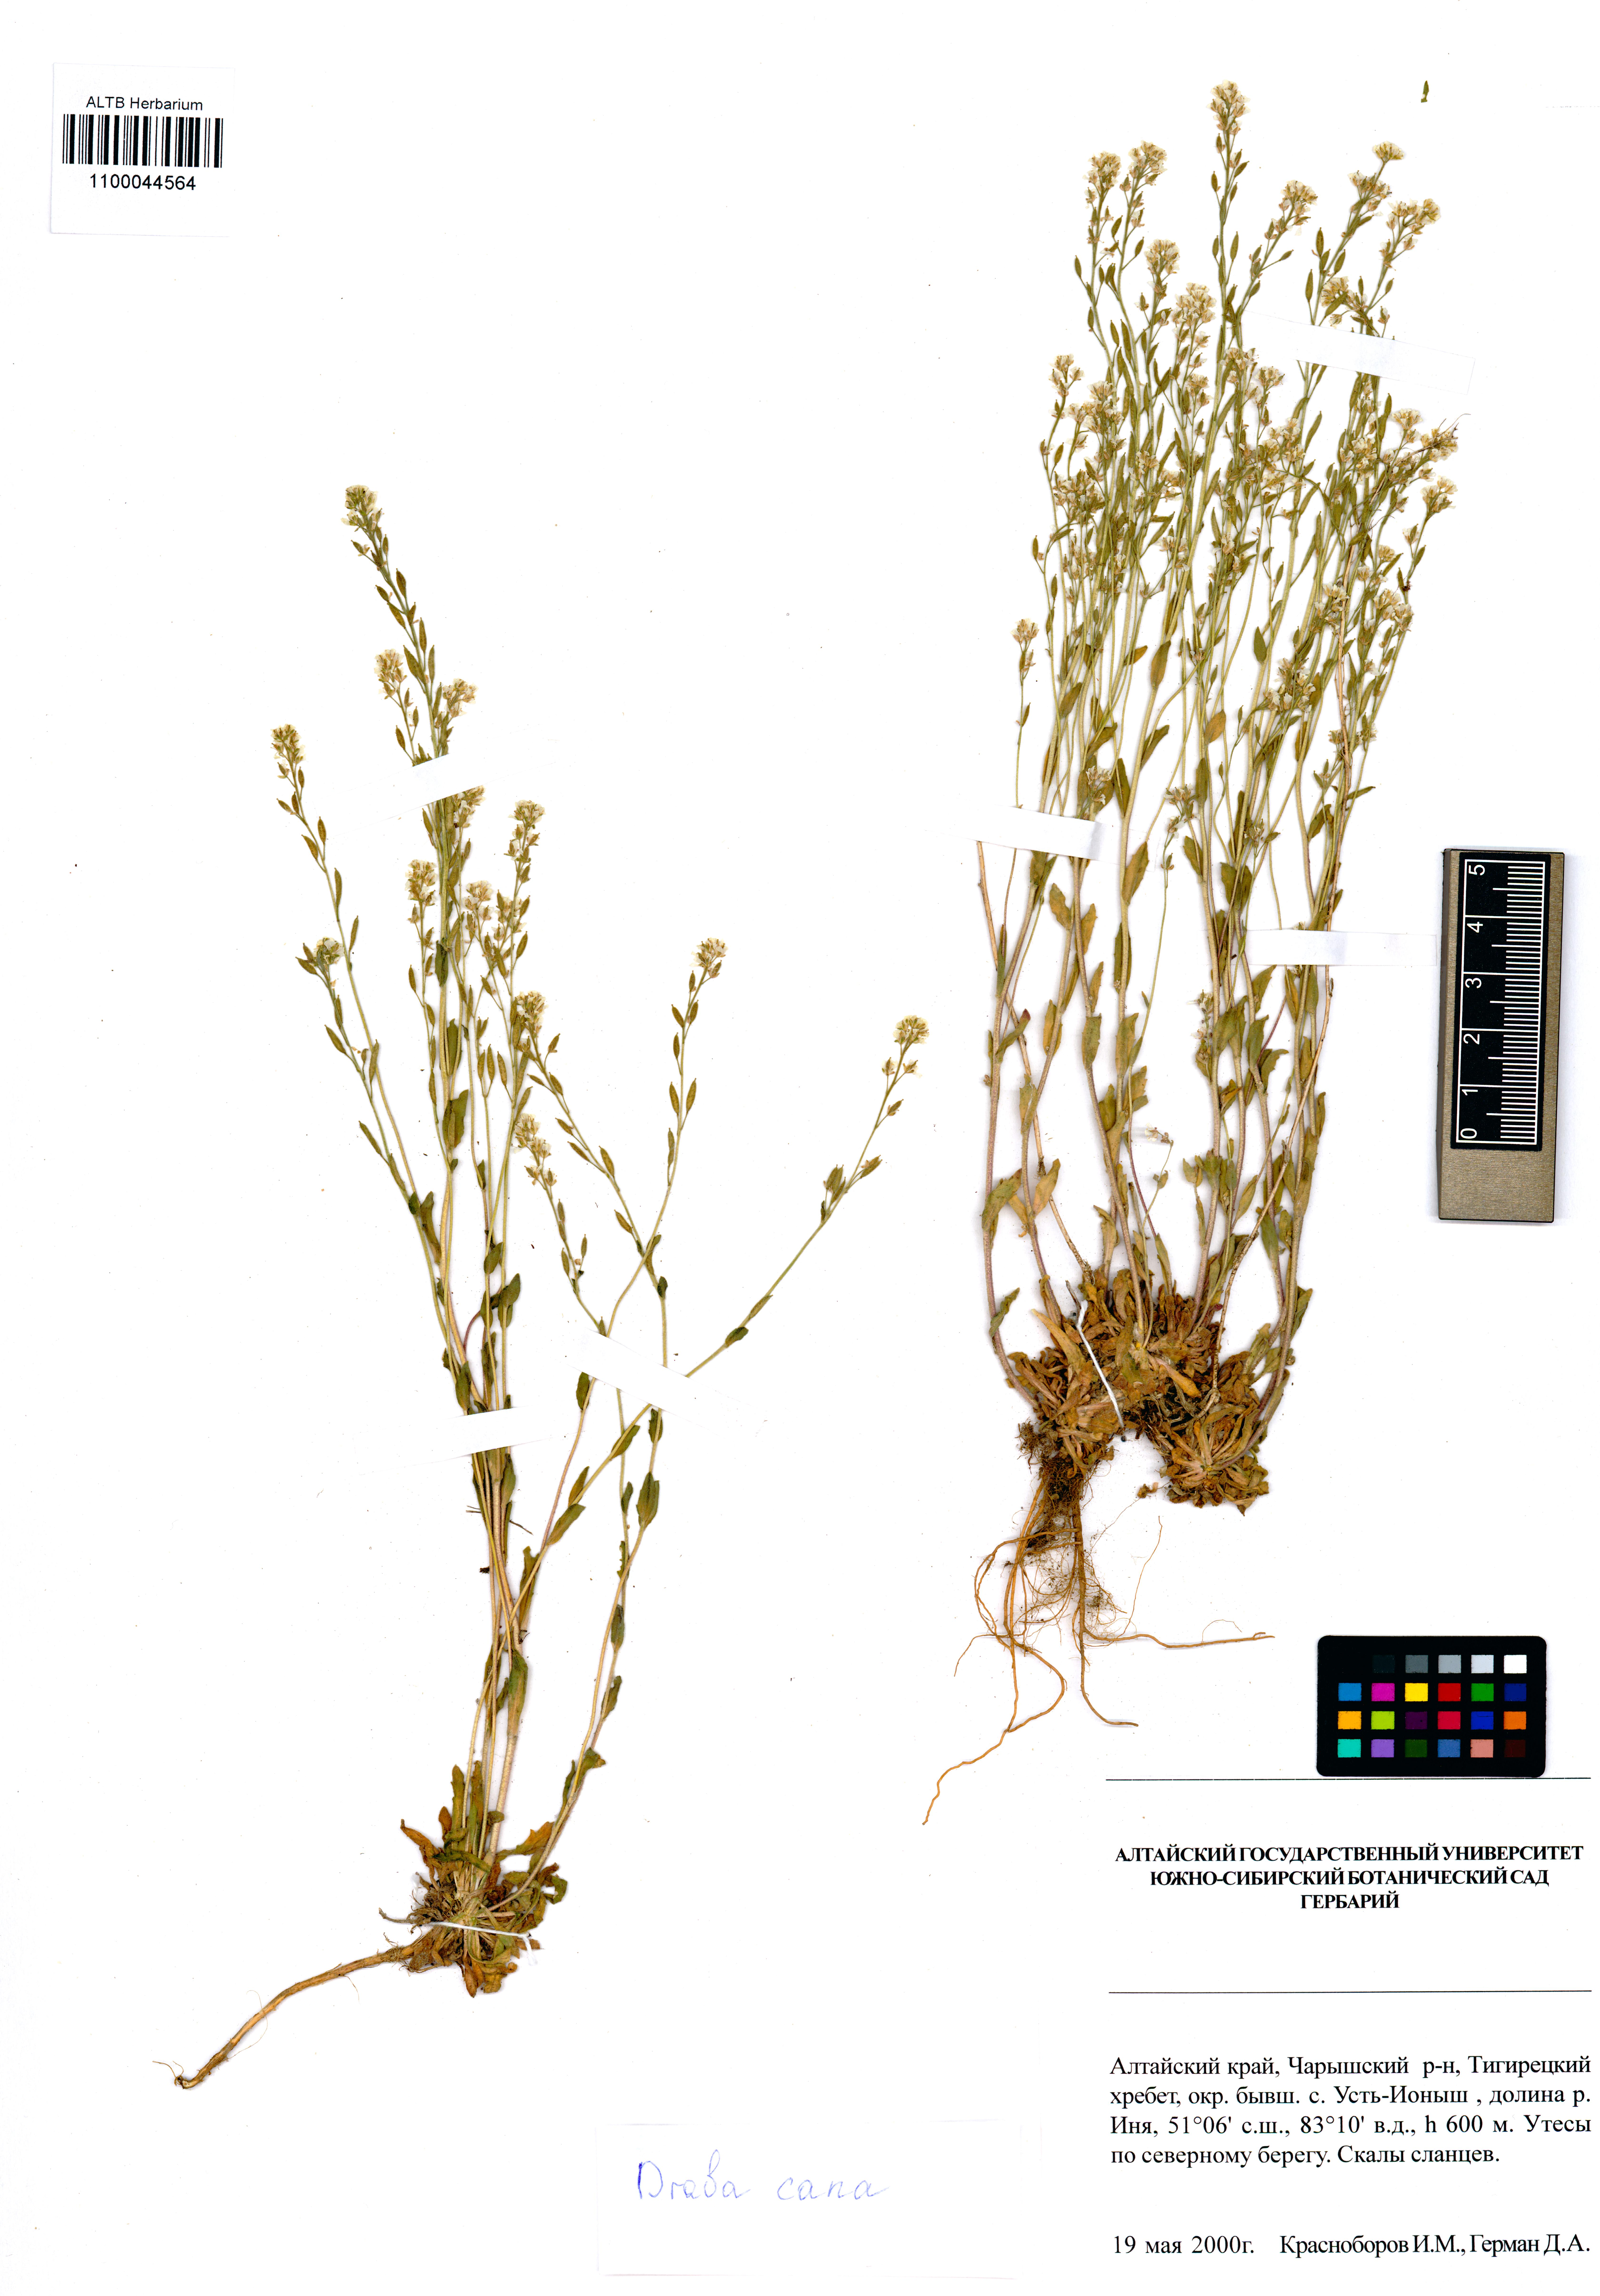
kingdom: Plantae
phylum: Tracheophyta
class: Magnoliopsida
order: Brassicales
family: Brassicaceae
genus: Draba
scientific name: Draba cana
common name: Hoary draba
